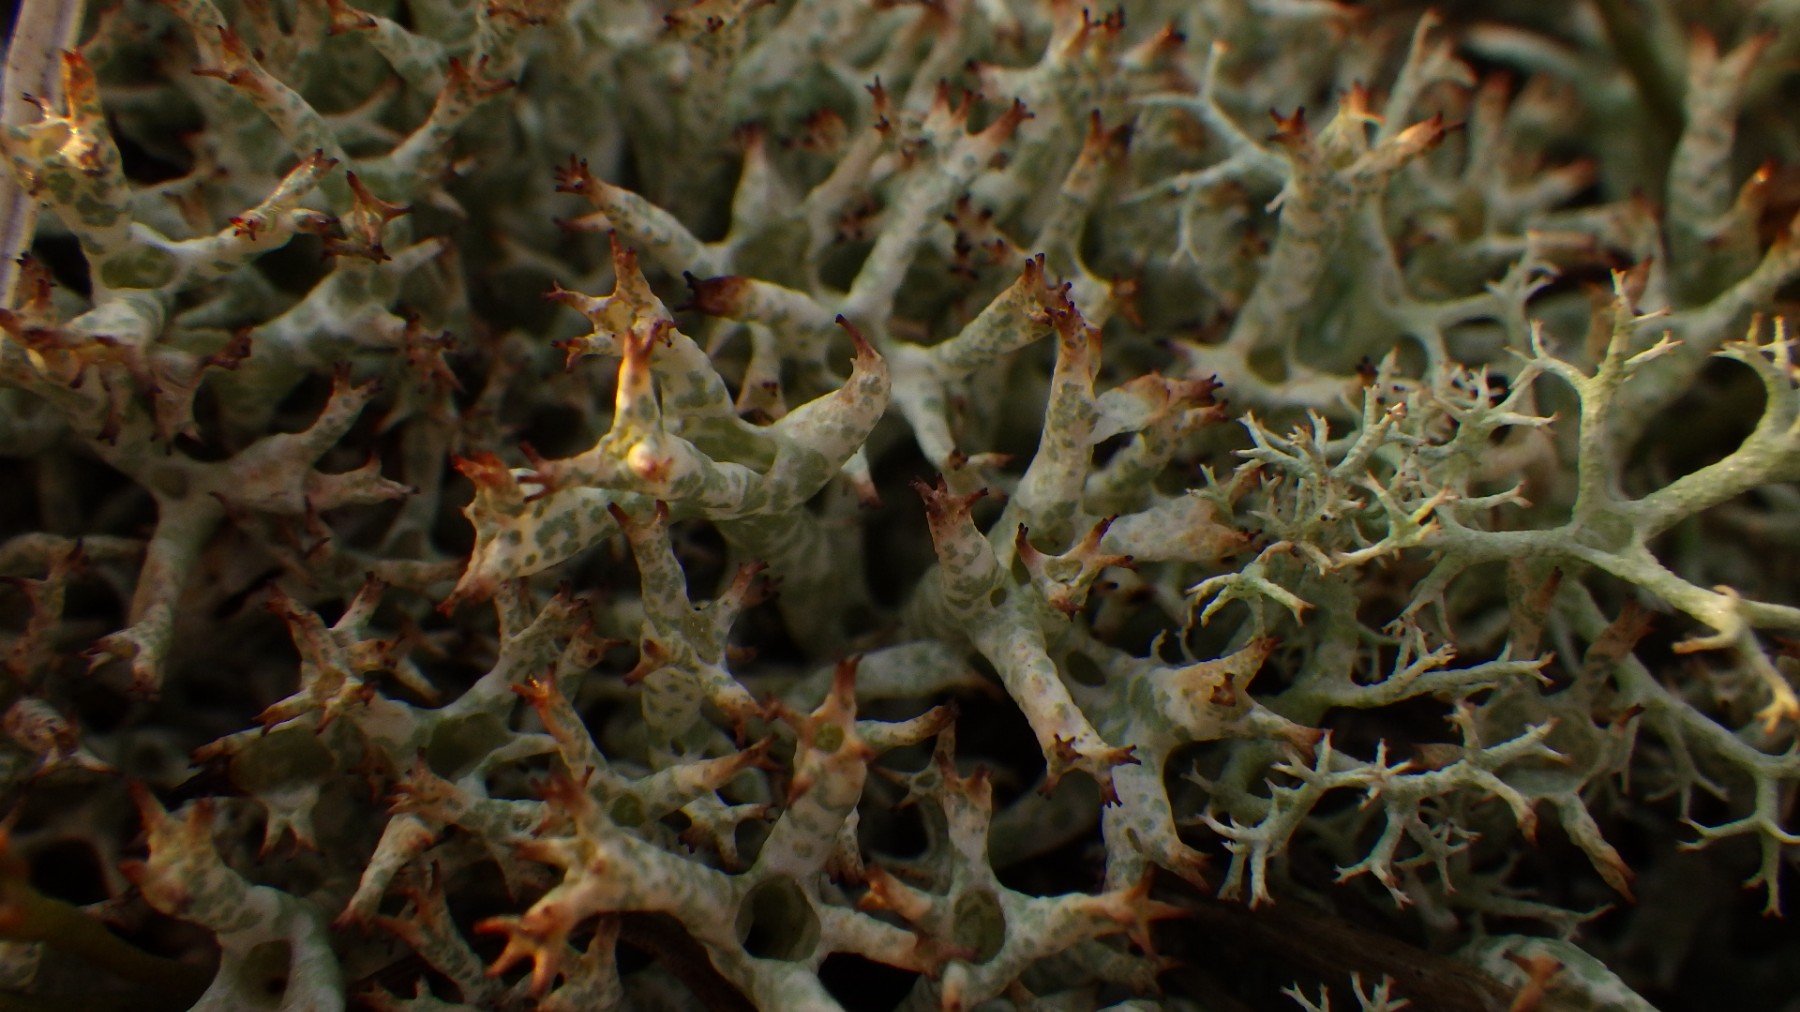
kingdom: Fungi
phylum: Ascomycota
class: Lecanoromycetes
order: Lecanorales
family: Cladoniaceae
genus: Cladonia
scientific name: Cladonia uncialis
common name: pigget bægerlav
